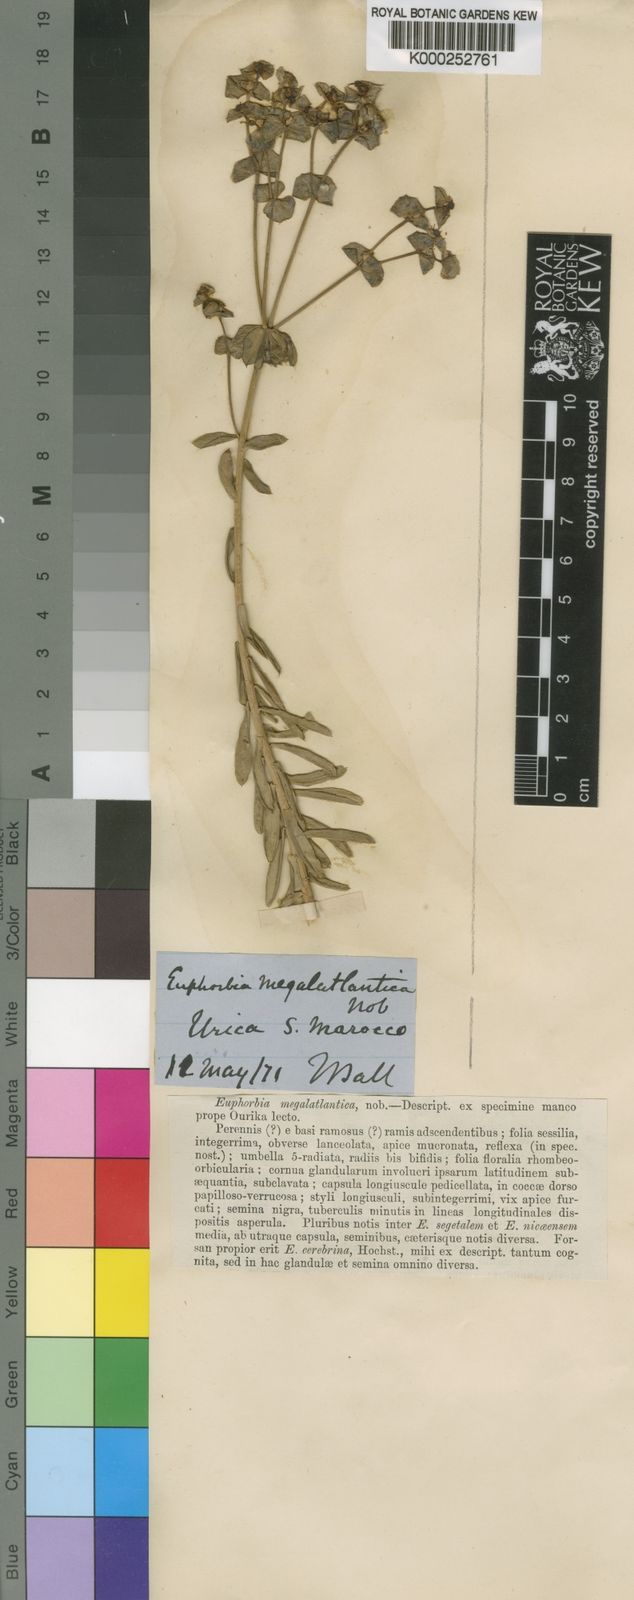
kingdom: Plantae
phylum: Tracheophyta
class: Magnoliopsida
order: Malpighiales
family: Euphorbiaceae
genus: Euphorbia
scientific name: Euphorbia megalatlantica
